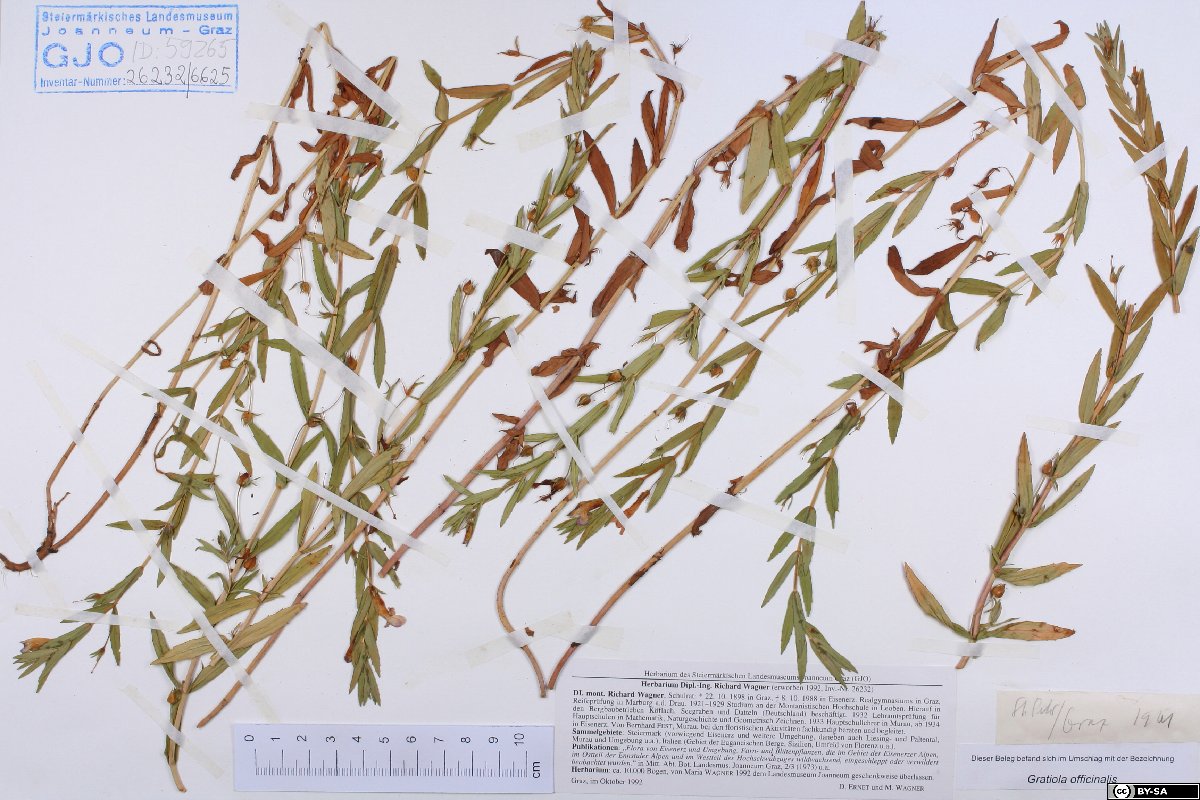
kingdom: Plantae
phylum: Tracheophyta
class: Magnoliopsida
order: Lamiales
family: Plantaginaceae
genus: Gratiola
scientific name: Gratiola officinalis
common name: Gratiola
